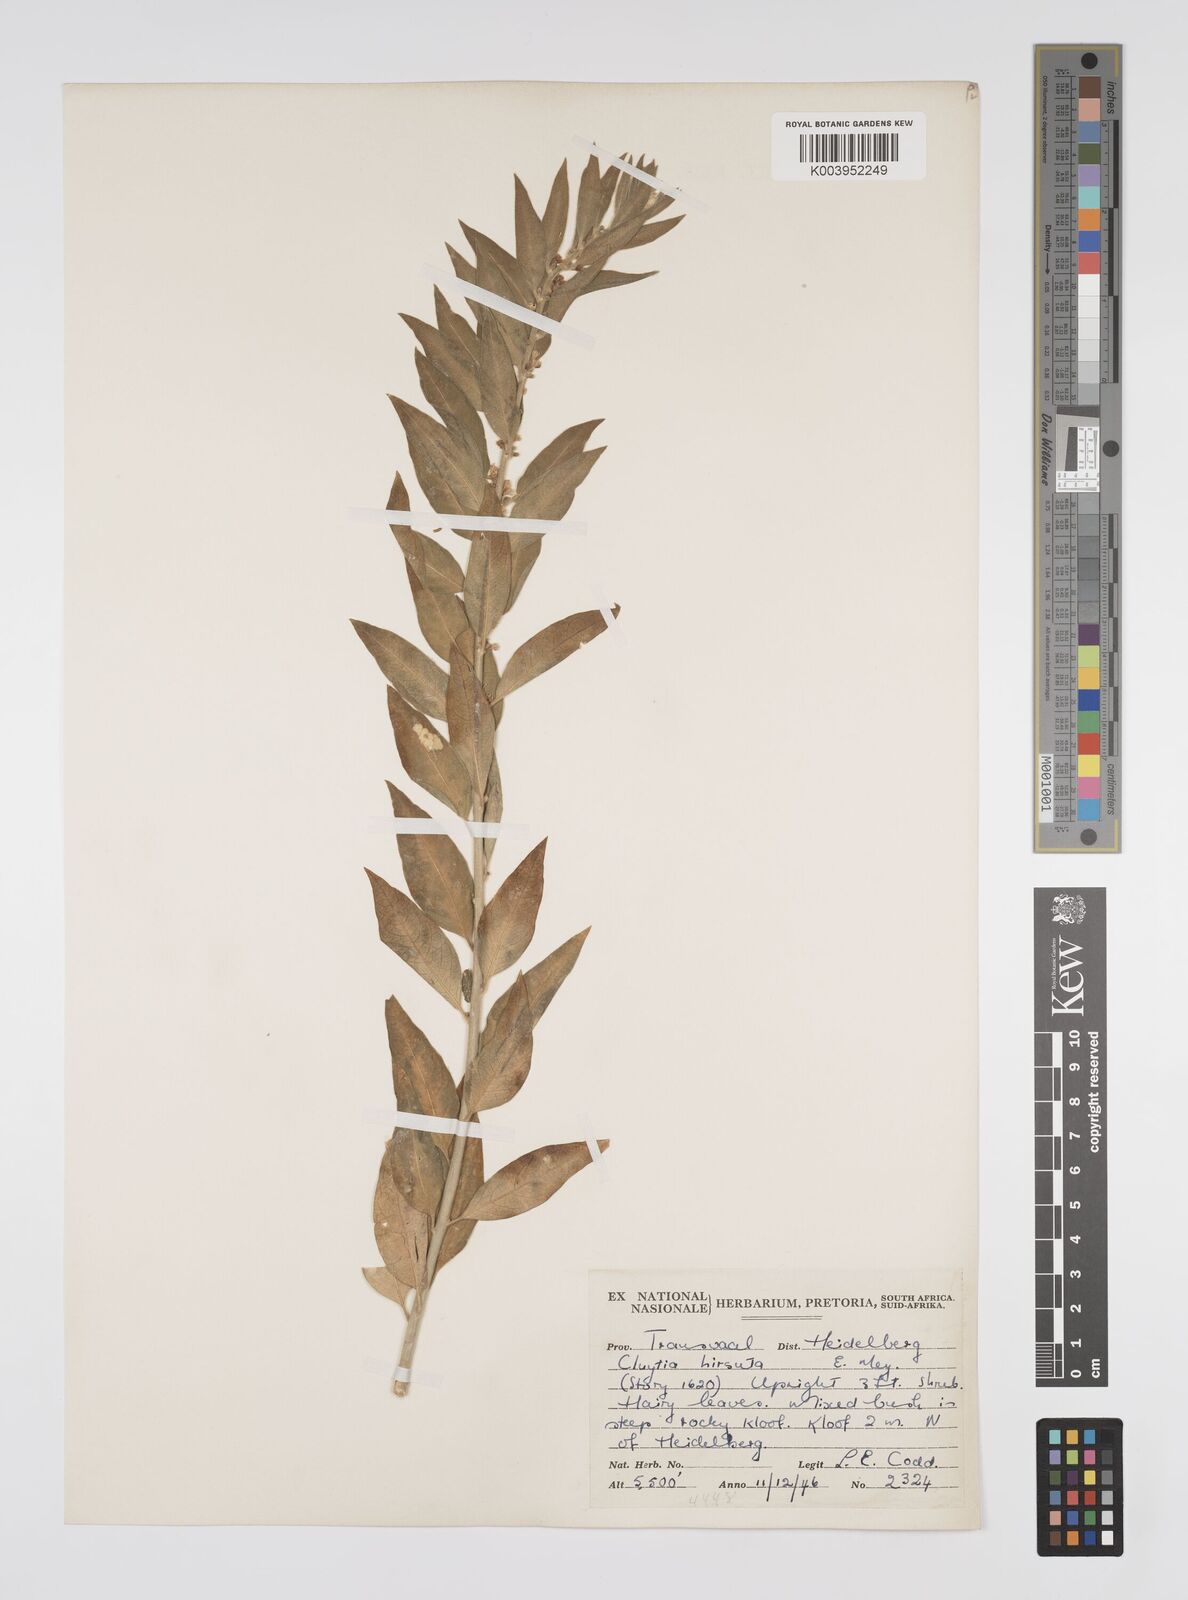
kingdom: Plantae
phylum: Tracheophyta
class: Magnoliopsida
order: Malpighiales
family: Peraceae
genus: Clutia
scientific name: Clutia affinis
